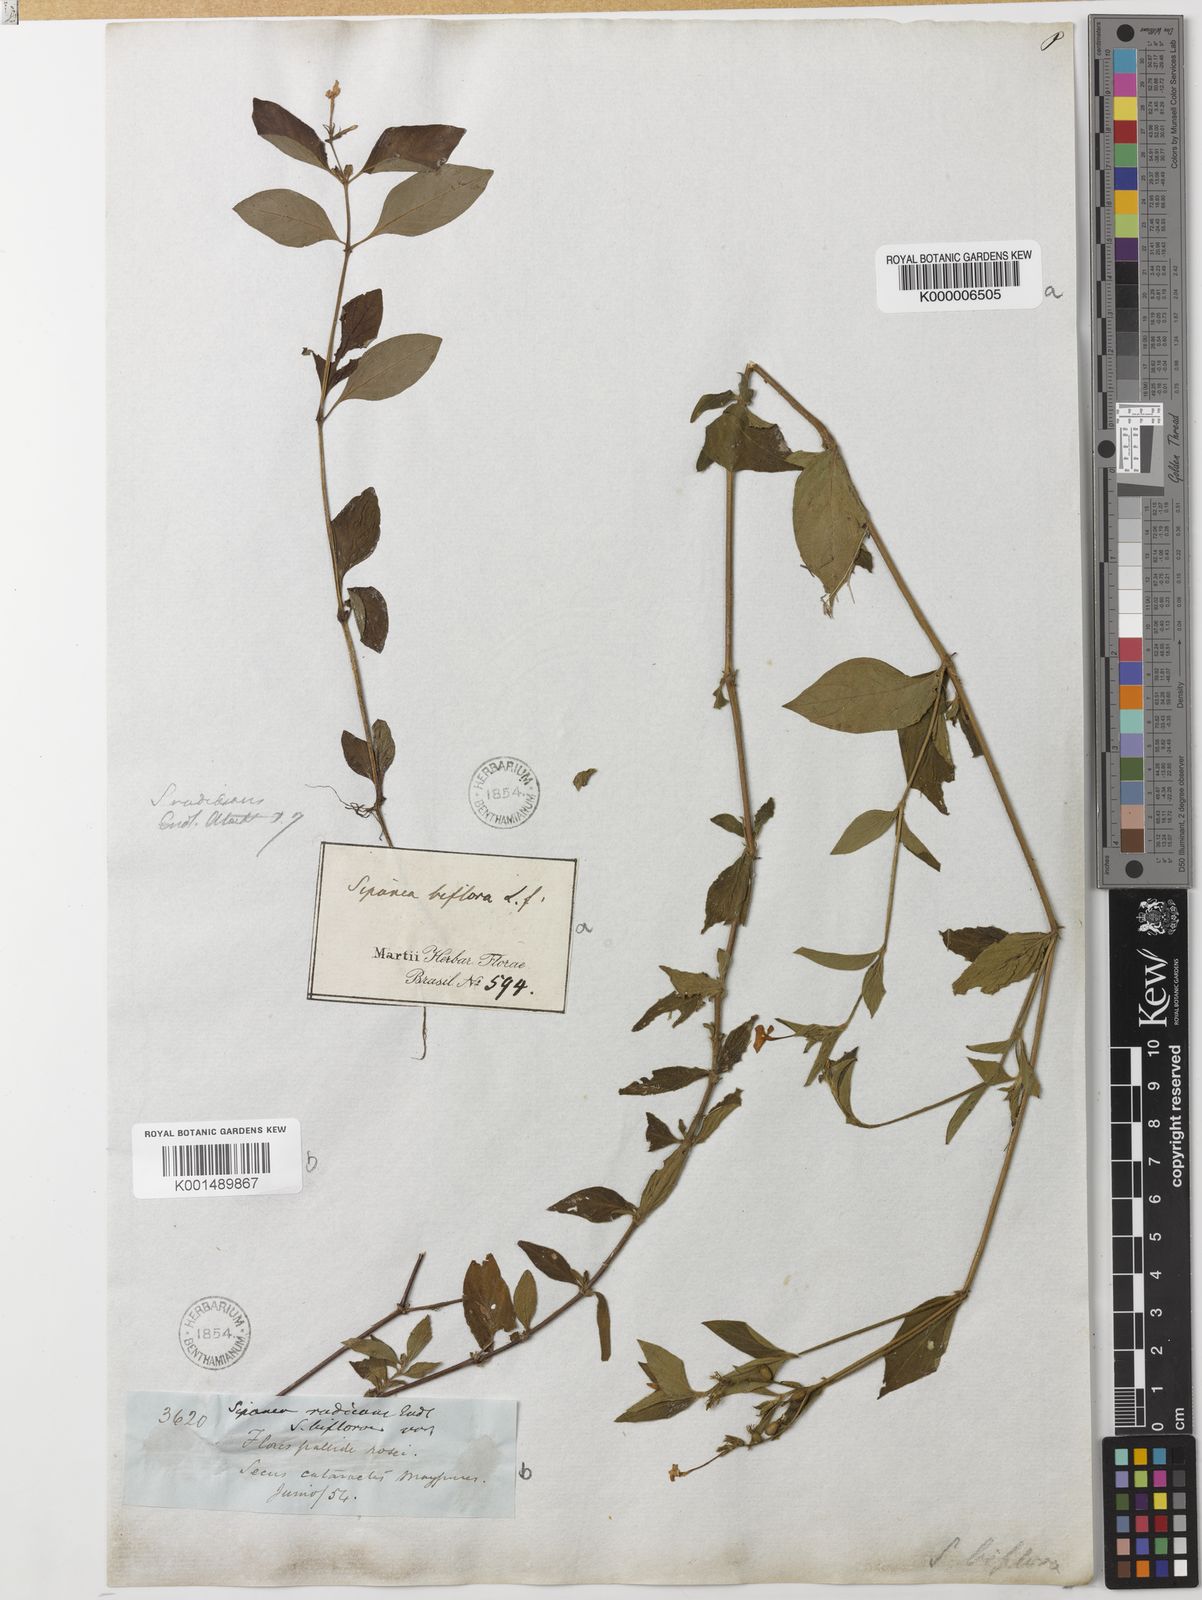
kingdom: Plantae
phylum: Tracheophyta
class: Magnoliopsida
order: Gentianales
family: Rubiaceae
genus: Sipanea
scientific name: Sipanea
